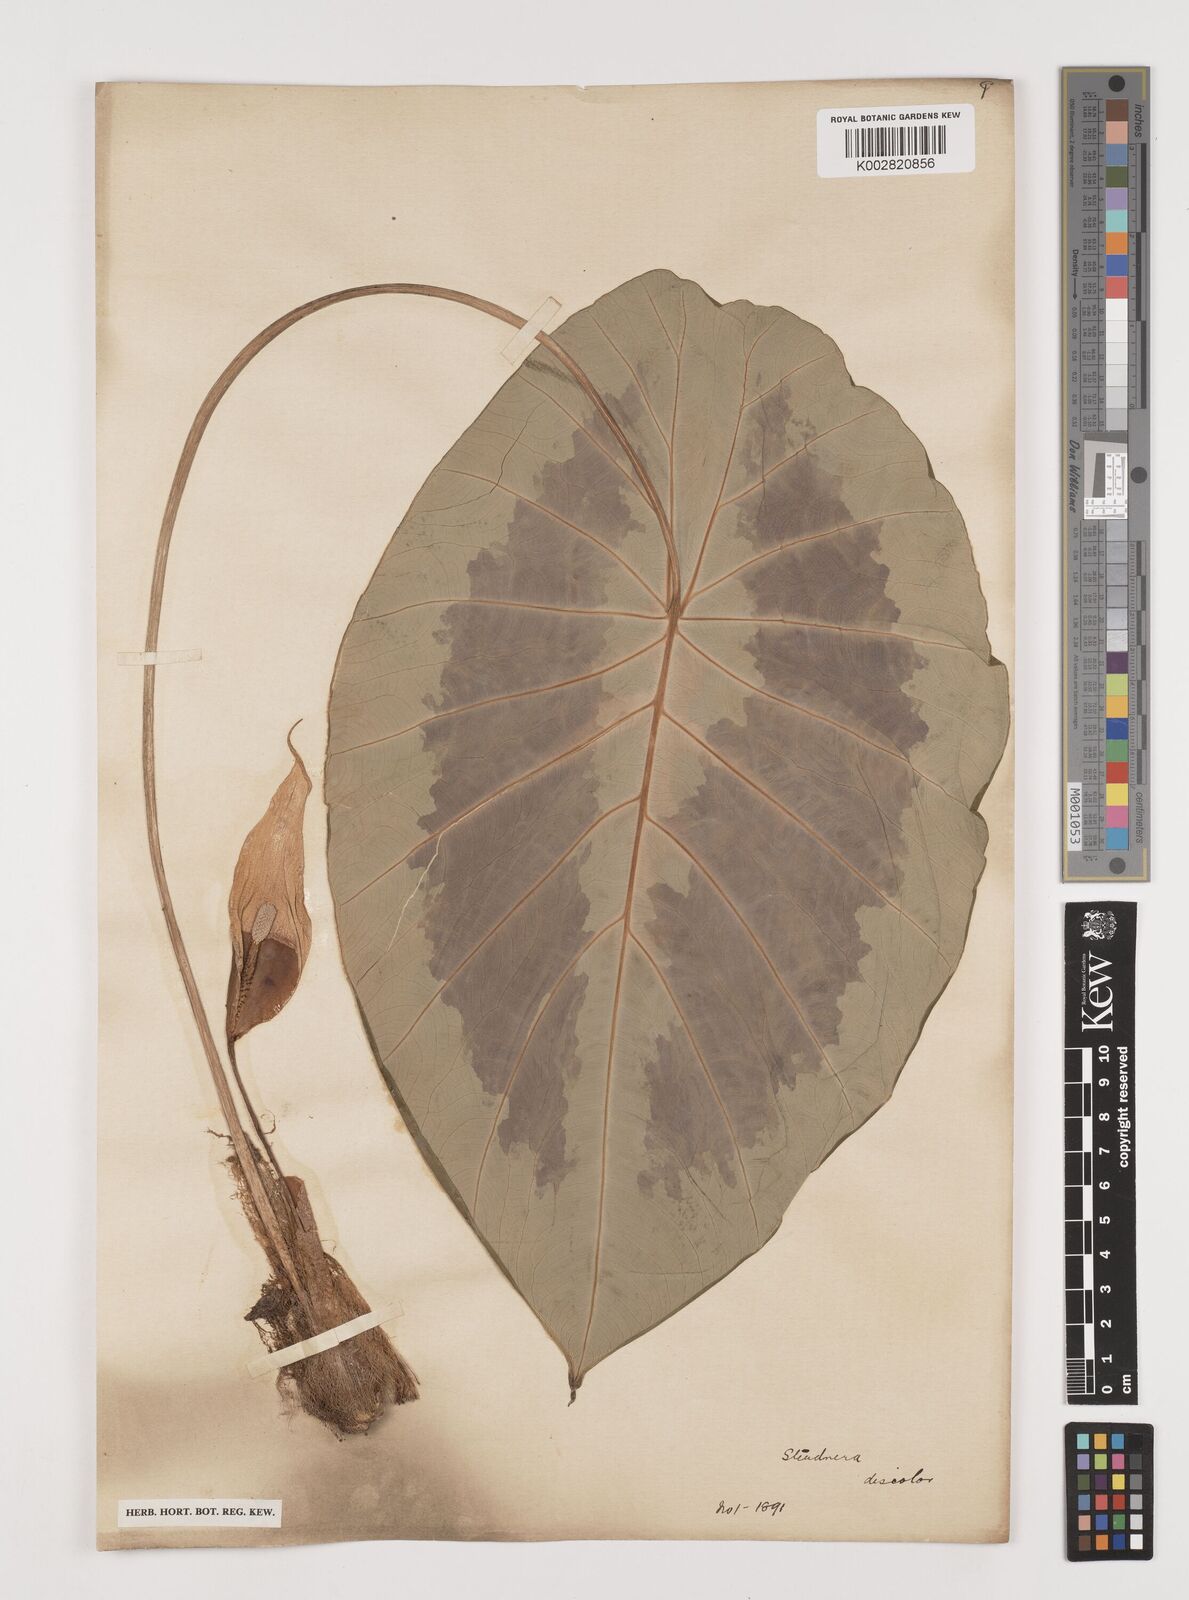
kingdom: Plantae
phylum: Tracheophyta
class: Liliopsida
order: Alismatales
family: Araceae
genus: Steudnera
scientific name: Steudnera discolor
